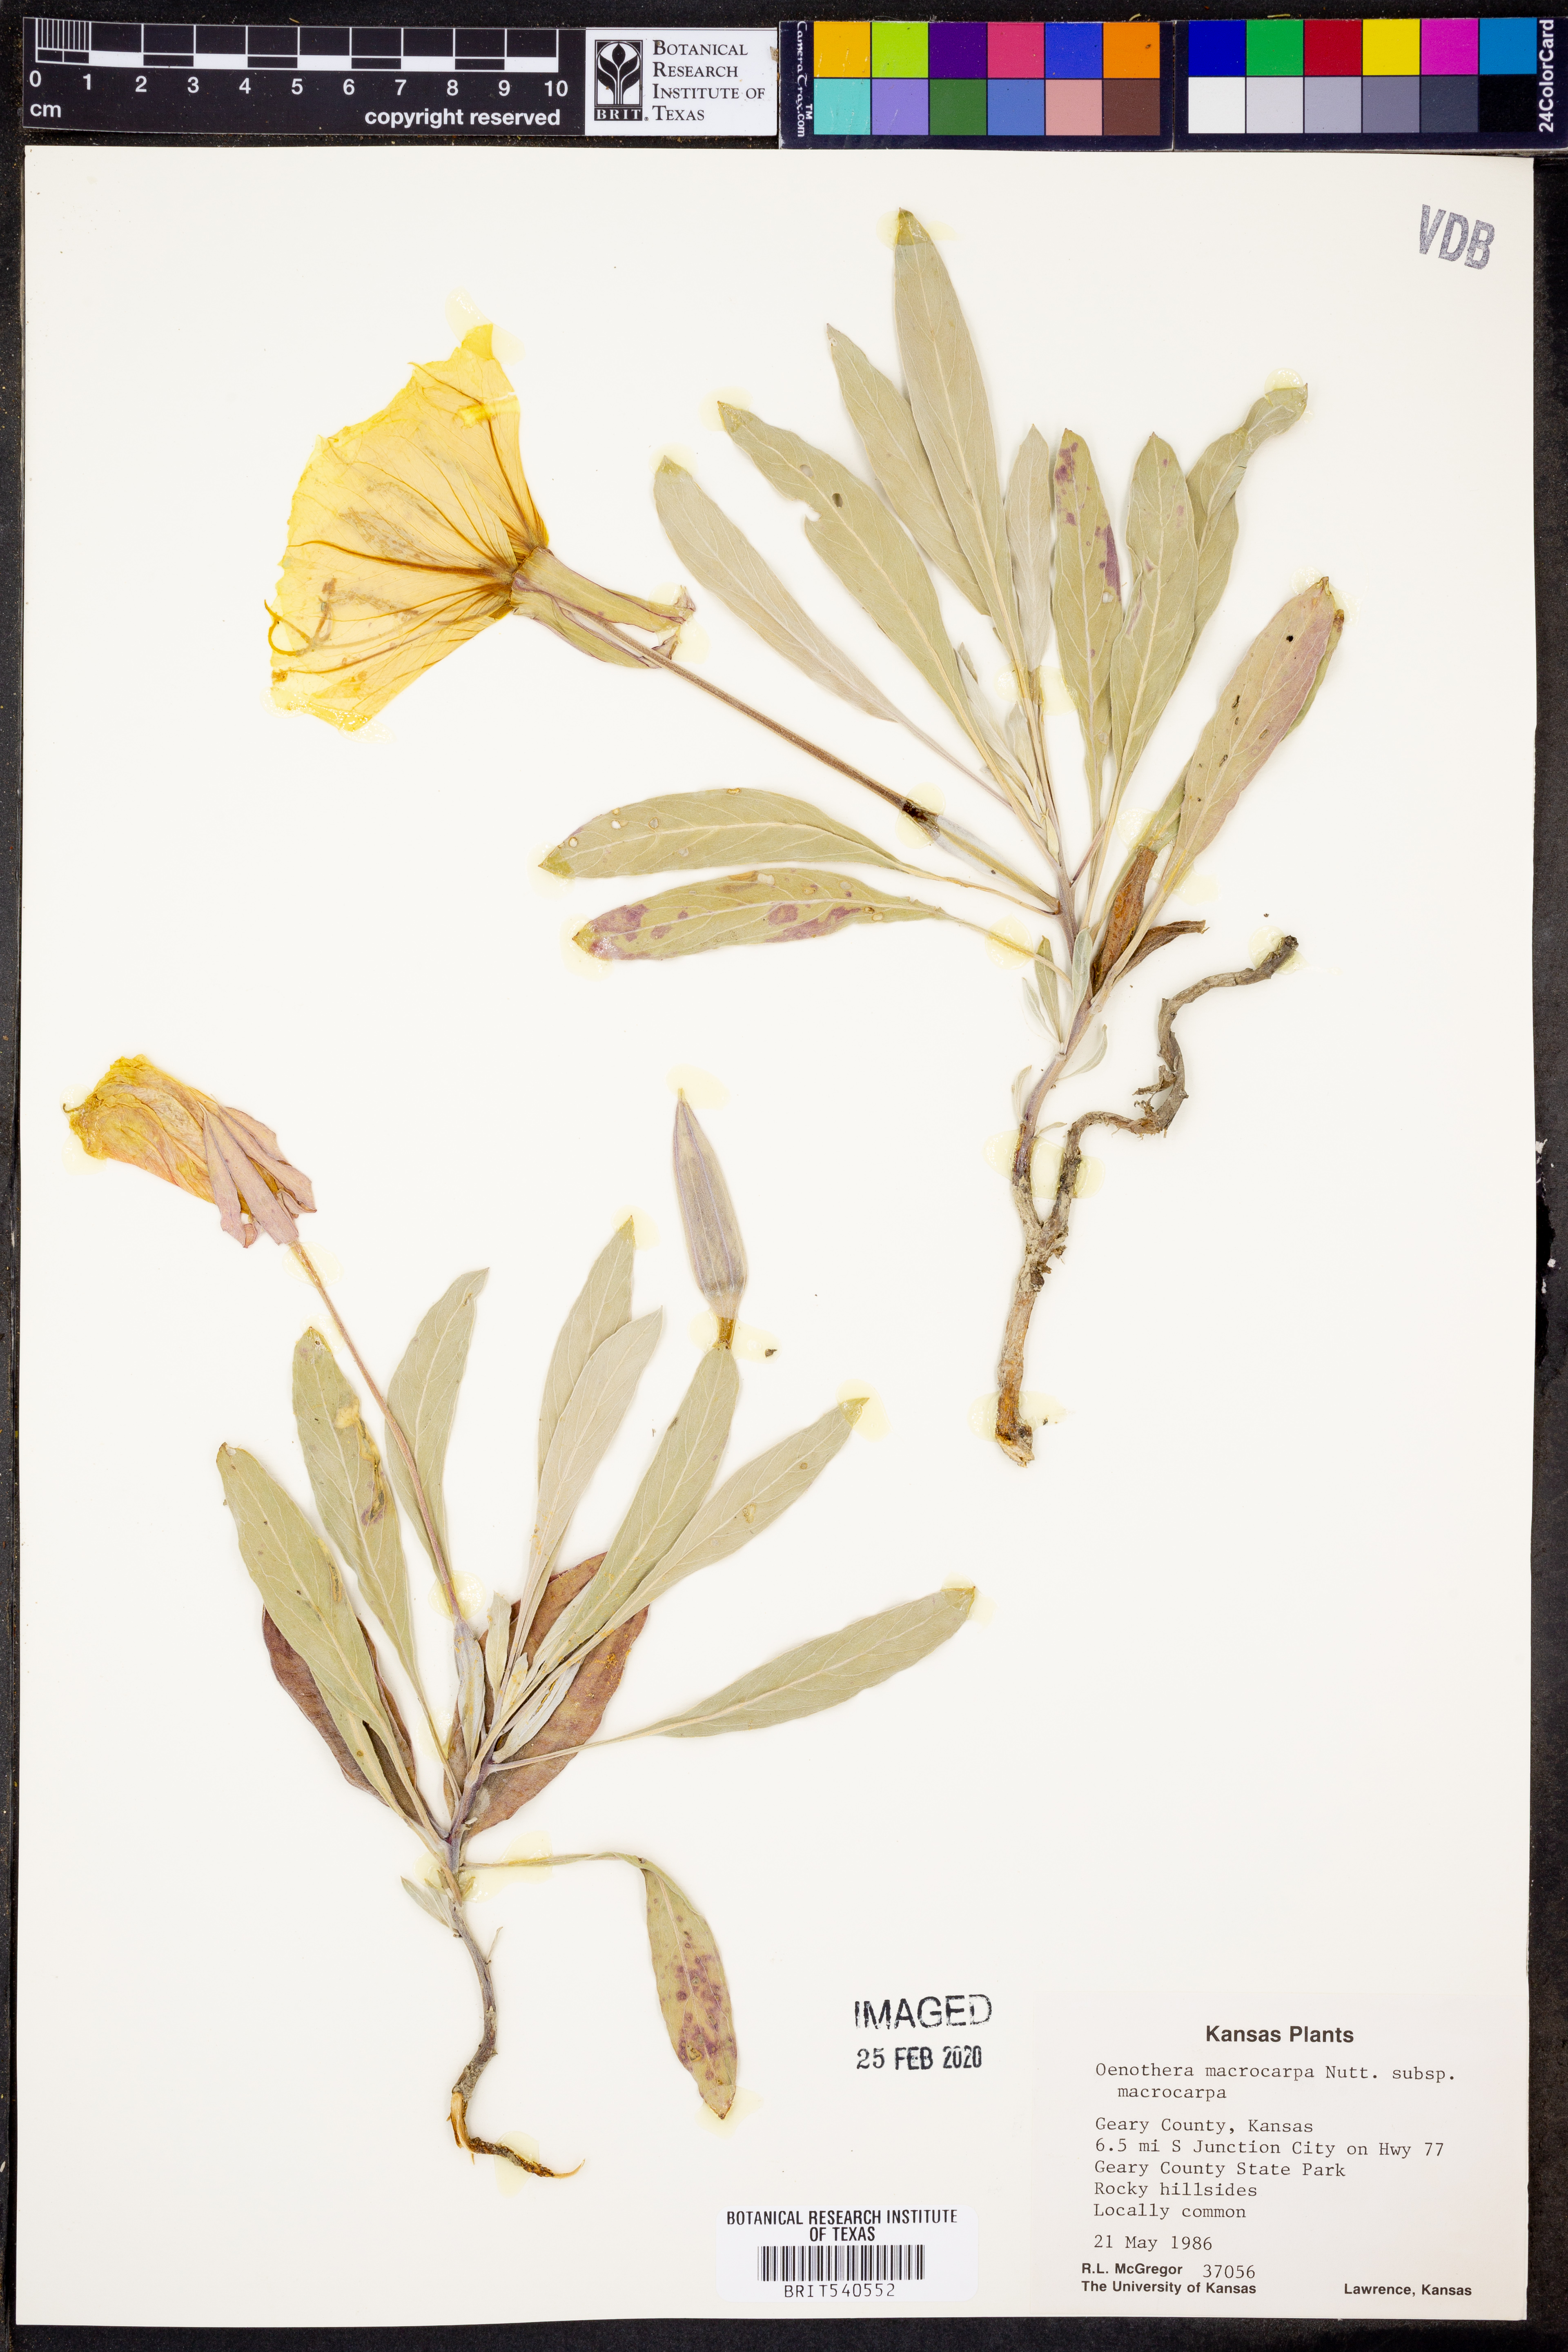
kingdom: Plantae
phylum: Tracheophyta
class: Magnoliopsida
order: Myrtales
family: Onagraceae
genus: Oenothera
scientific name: Oenothera macrocarpa
